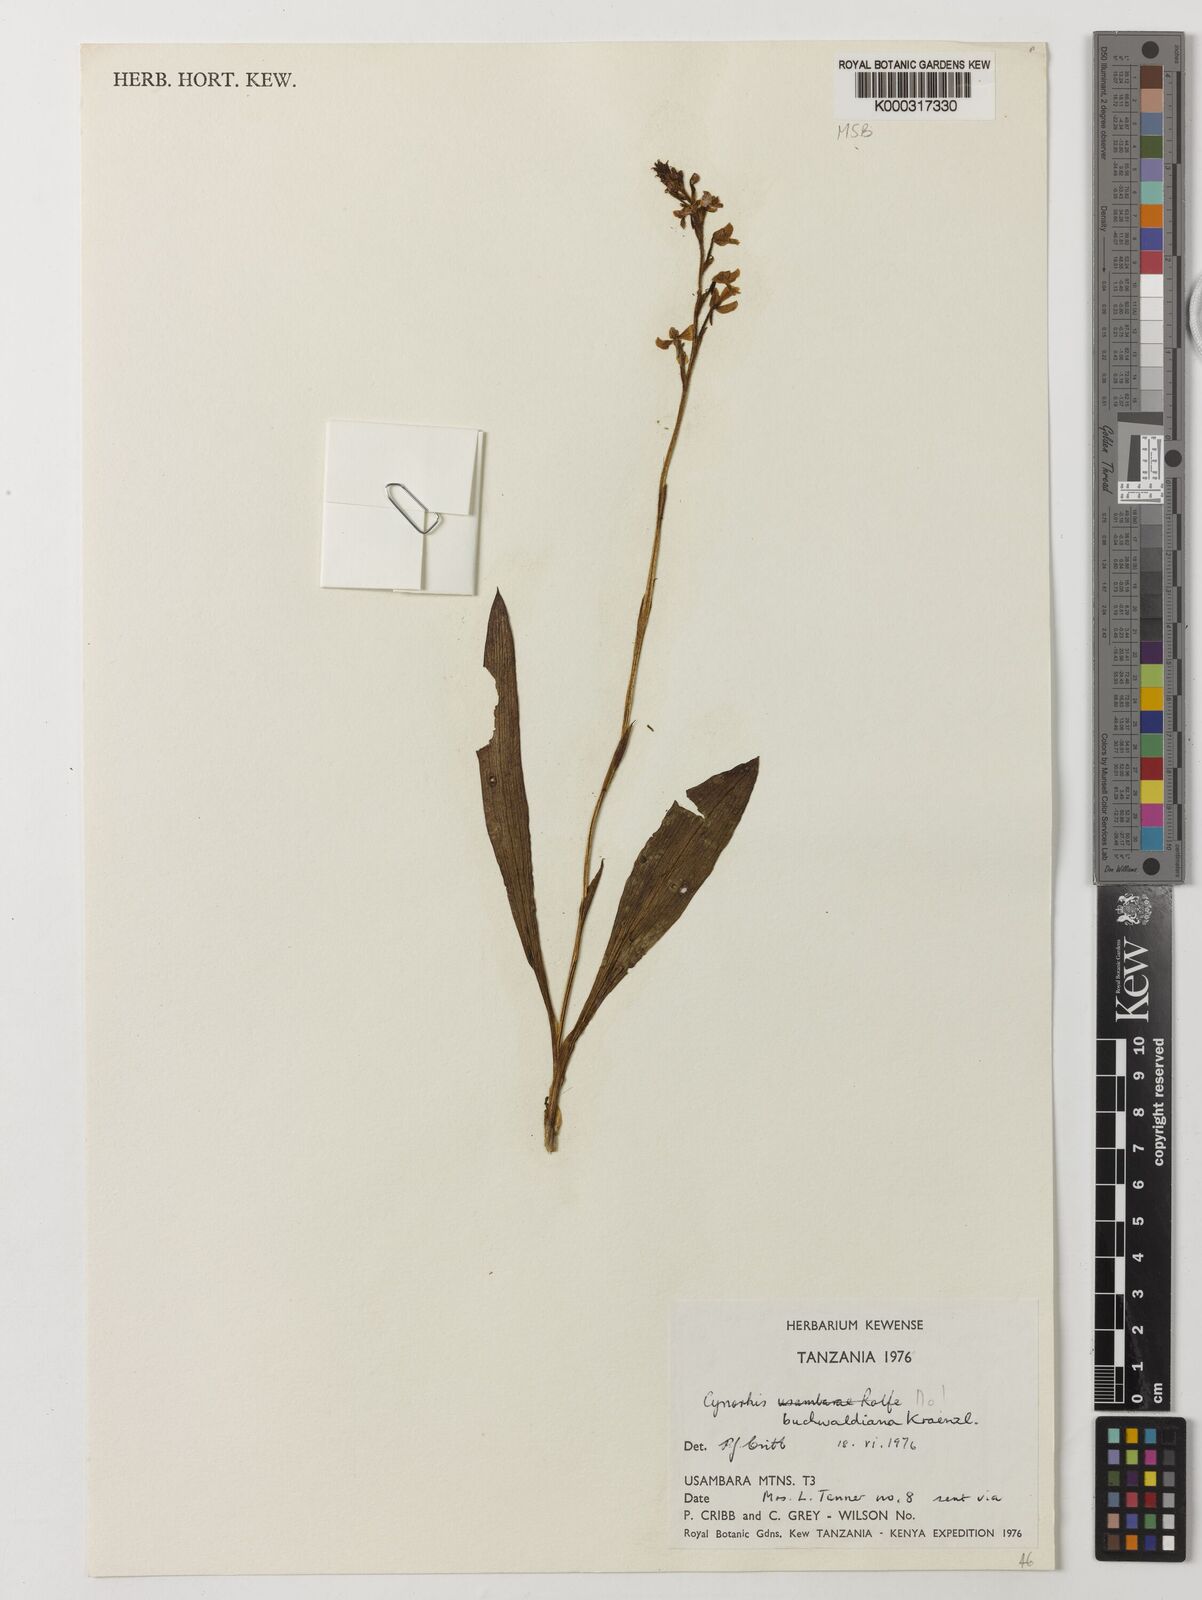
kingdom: Plantae
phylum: Tracheophyta
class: Liliopsida
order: Asparagales
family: Orchidaceae
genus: Cynorkis
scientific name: Cynorkis buchwaldiana
